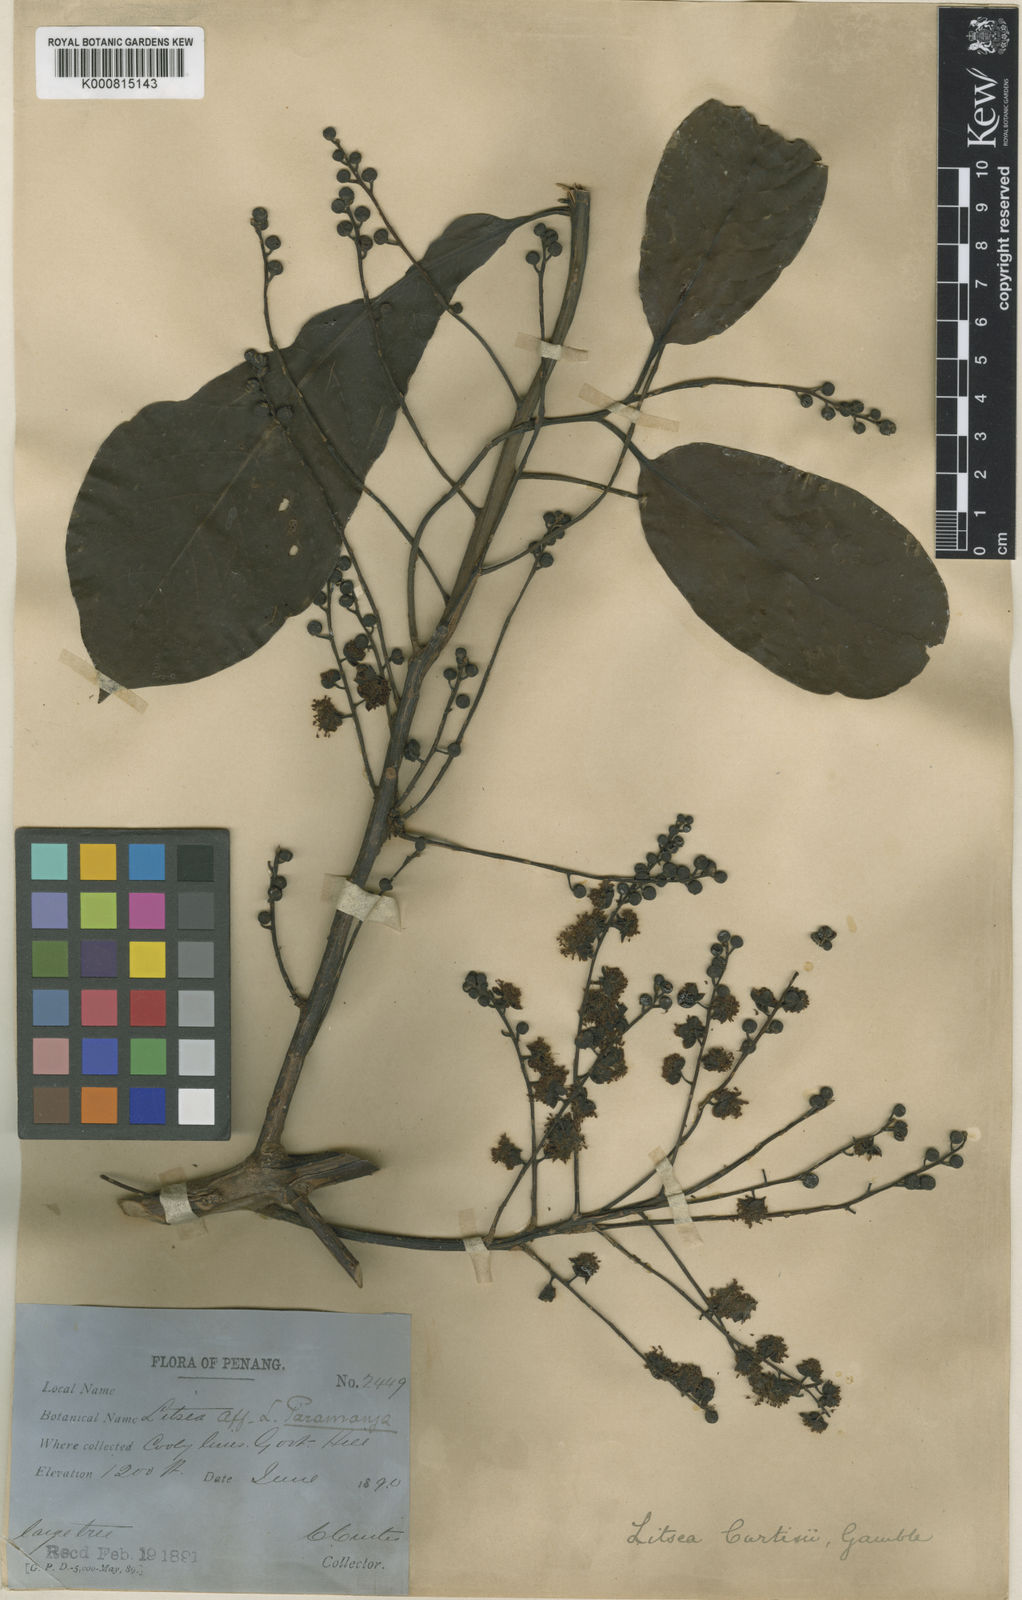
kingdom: Plantae
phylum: Tracheophyta
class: Magnoliopsida
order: Laurales
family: Lauraceae
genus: Litsea
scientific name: Litsea curtisii
